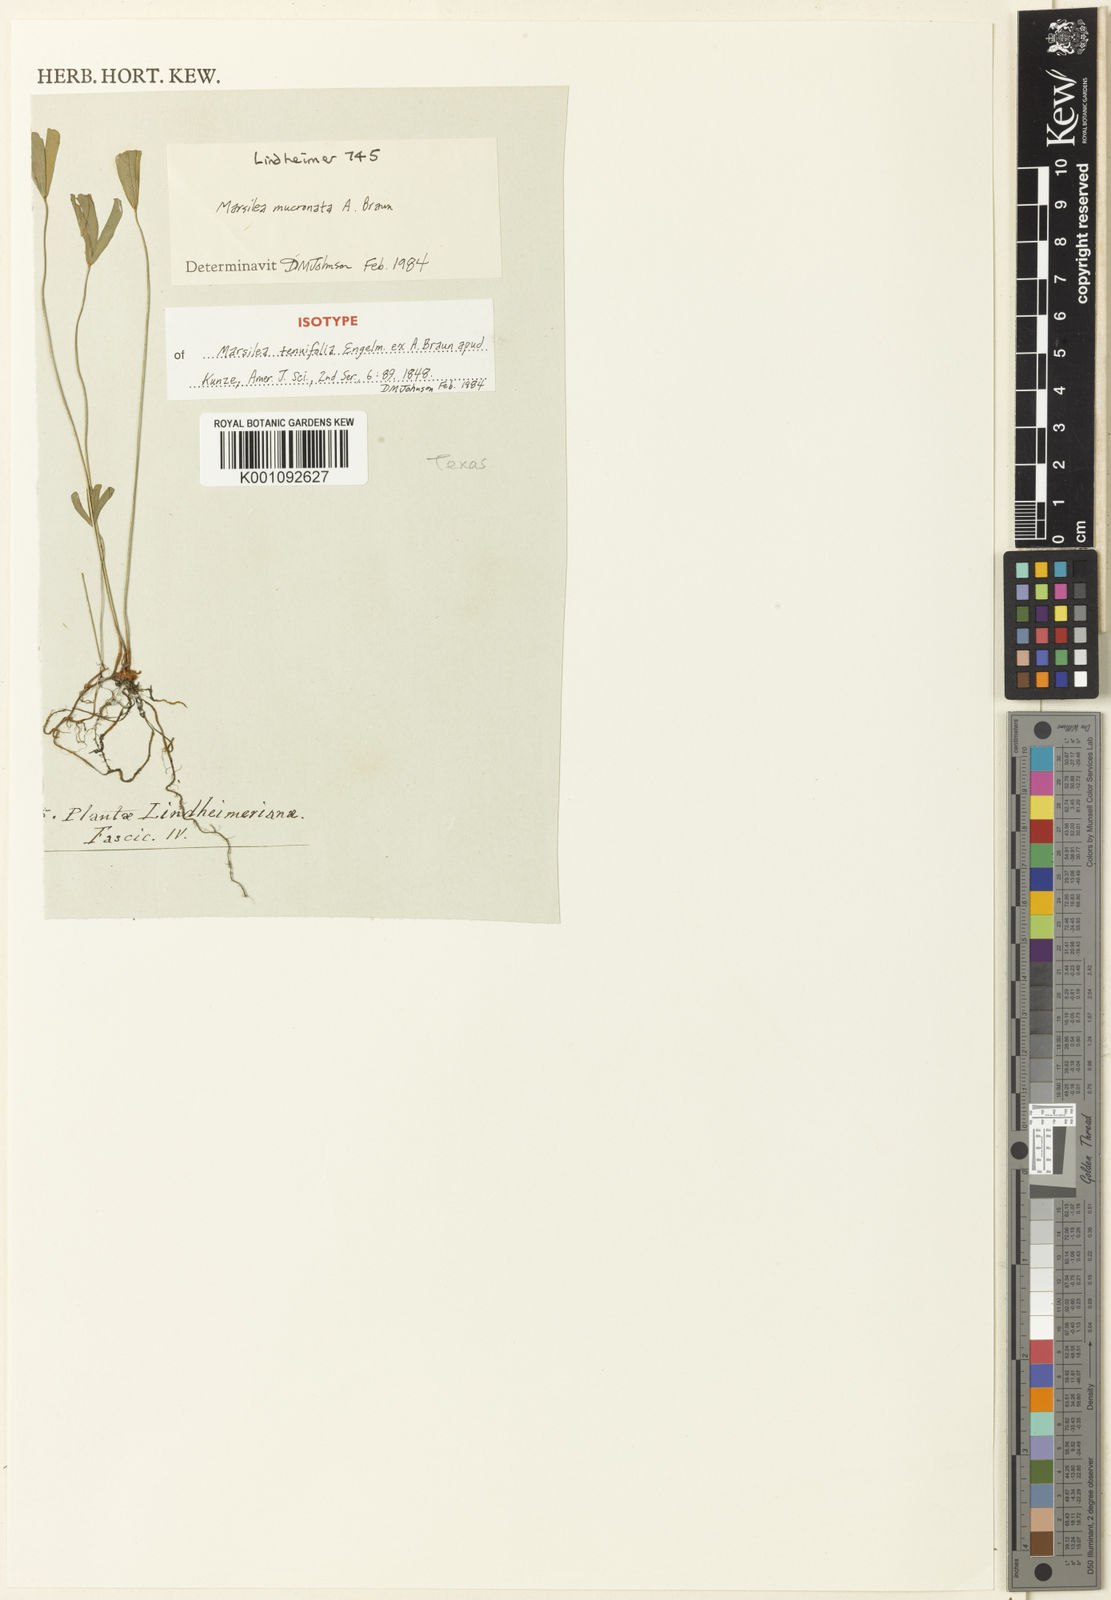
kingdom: Plantae
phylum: Tracheophyta
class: Polypodiopsida
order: Salviniales
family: Marsileaceae
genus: Marsilea
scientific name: Marsilea vestita
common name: Hooked-pepperwort
